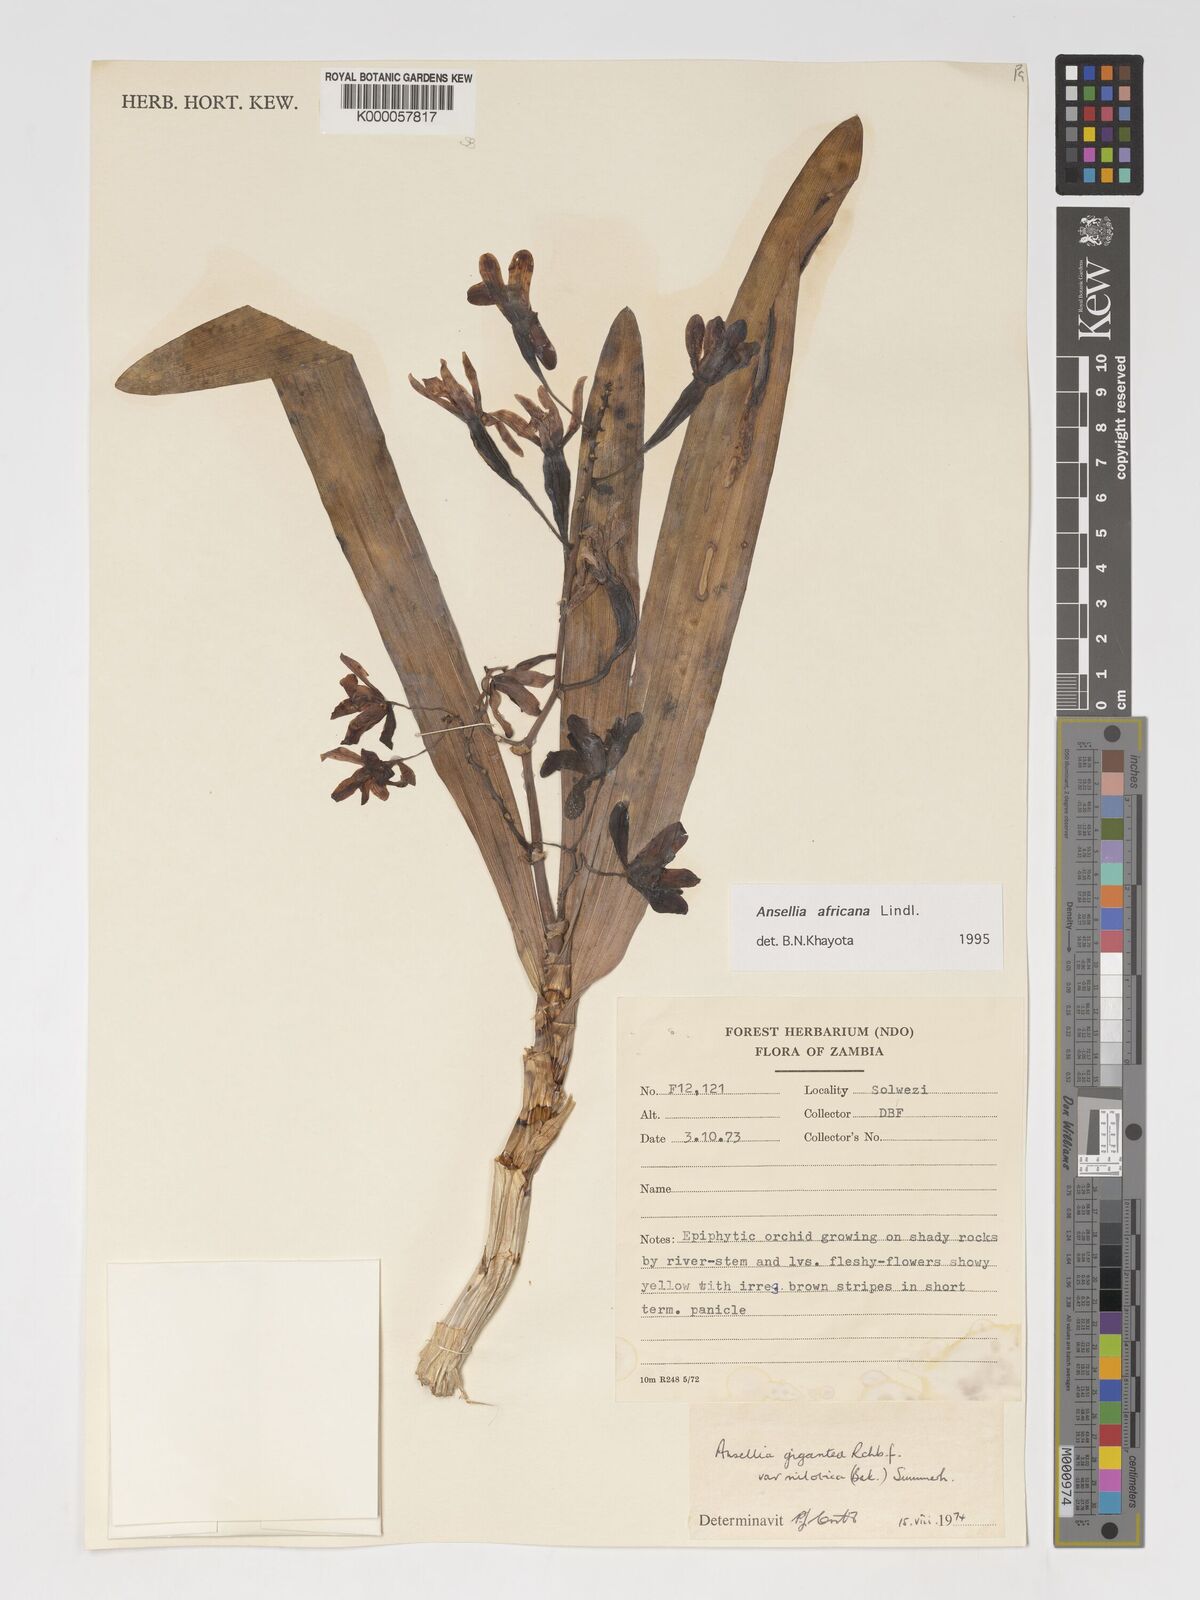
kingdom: Plantae
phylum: Tracheophyta
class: Liliopsida
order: Asparagales
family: Orchidaceae
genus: Ansellia
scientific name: Ansellia africana
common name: African ansellia
